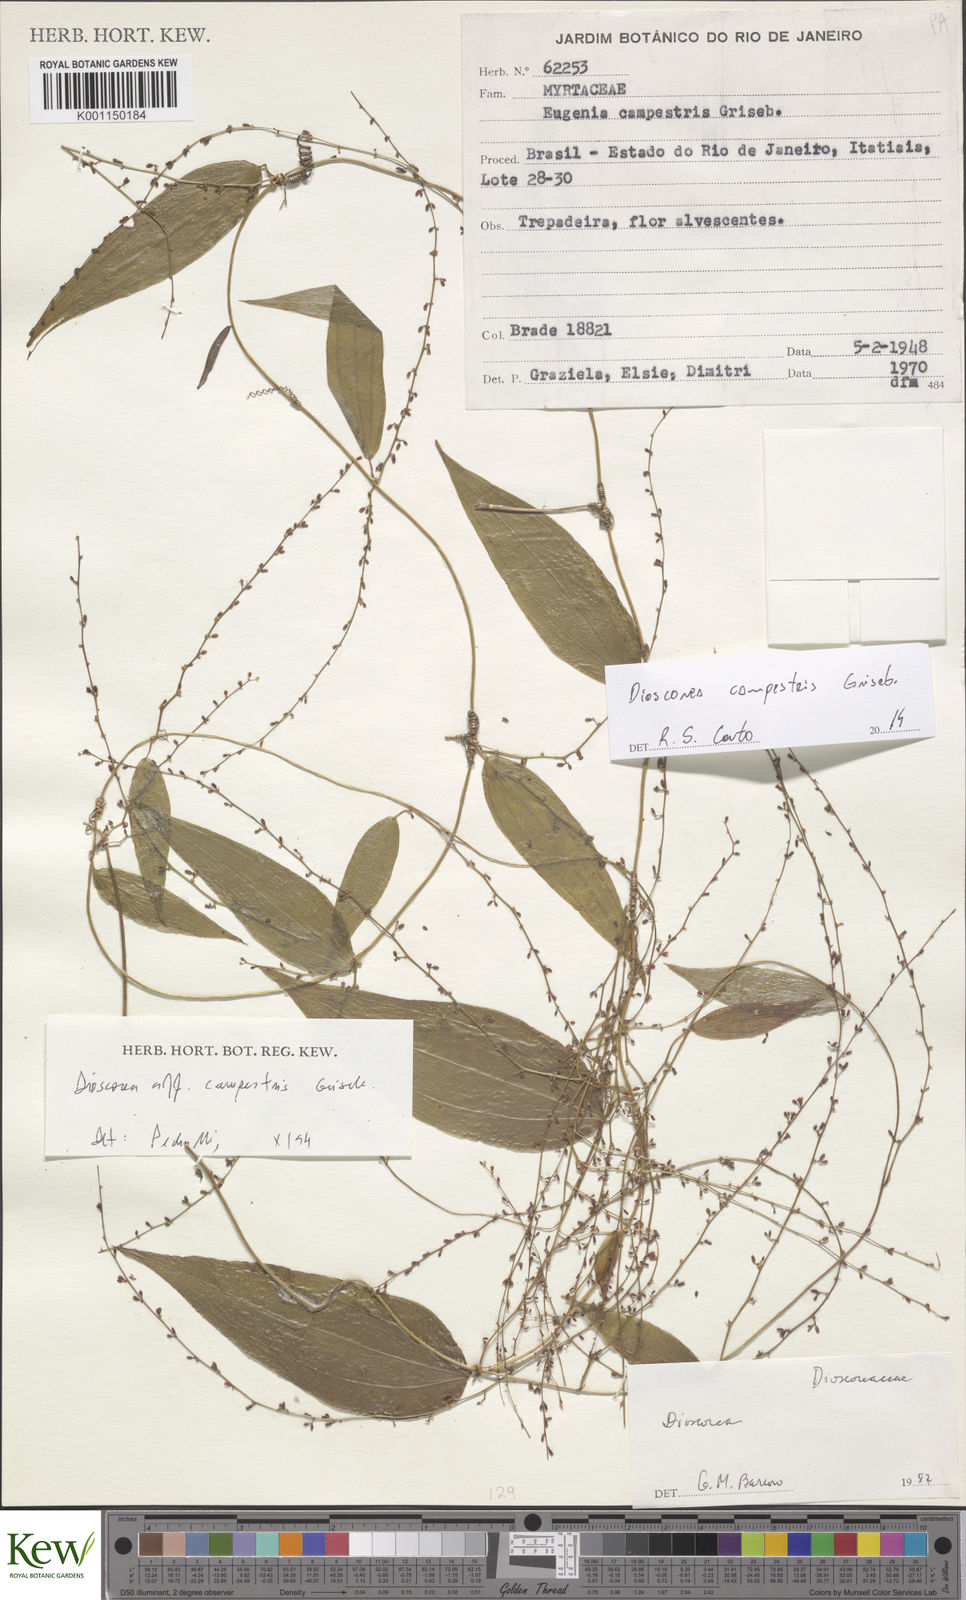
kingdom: Plantae
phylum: Tracheophyta
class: Liliopsida
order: Dioscoreales
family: Dioscoreaceae
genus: Dioscorea
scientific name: Dioscorea campestris
